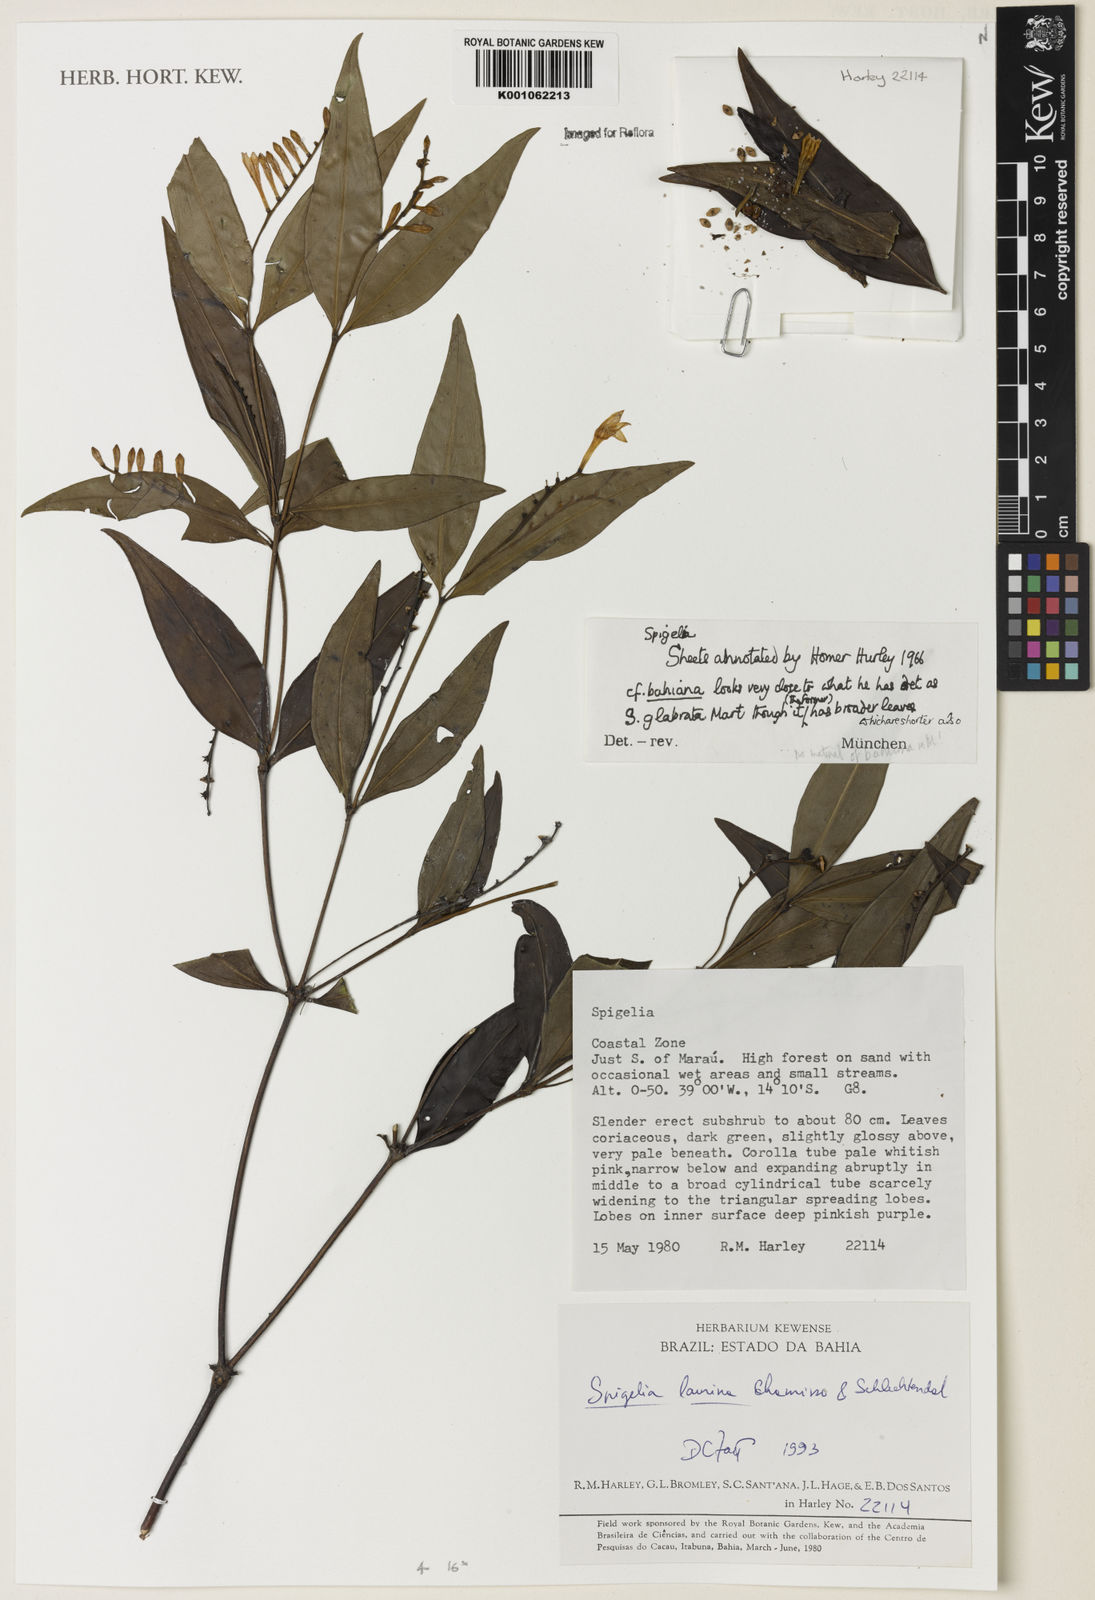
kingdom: Plantae
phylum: Tracheophyta
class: Magnoliopsida
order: Gentianales
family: Loganiaceae
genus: Spigelia
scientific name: Spigelia laurina
